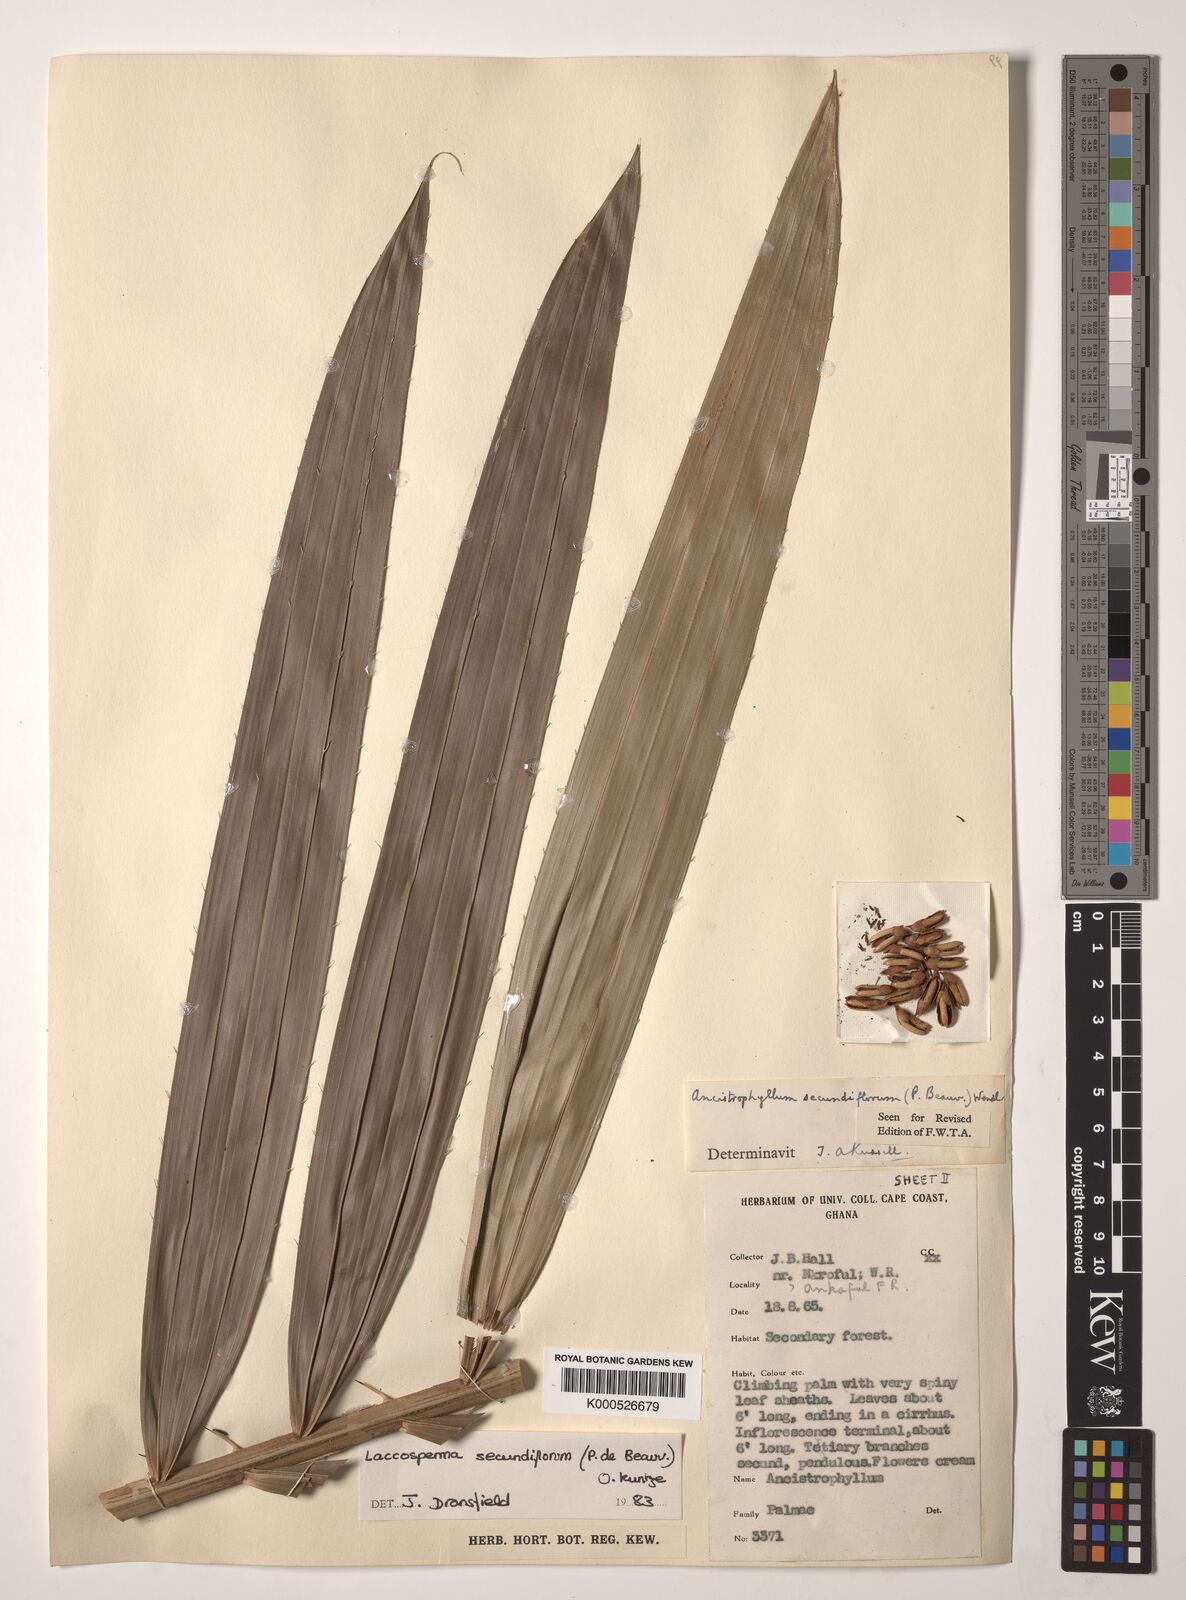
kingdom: Plantae
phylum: Tracheophyta
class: Liliopsida
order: Arecales
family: Arecaceae
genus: Laccosperma
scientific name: Laccosperma secundiflorum
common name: Rattan
